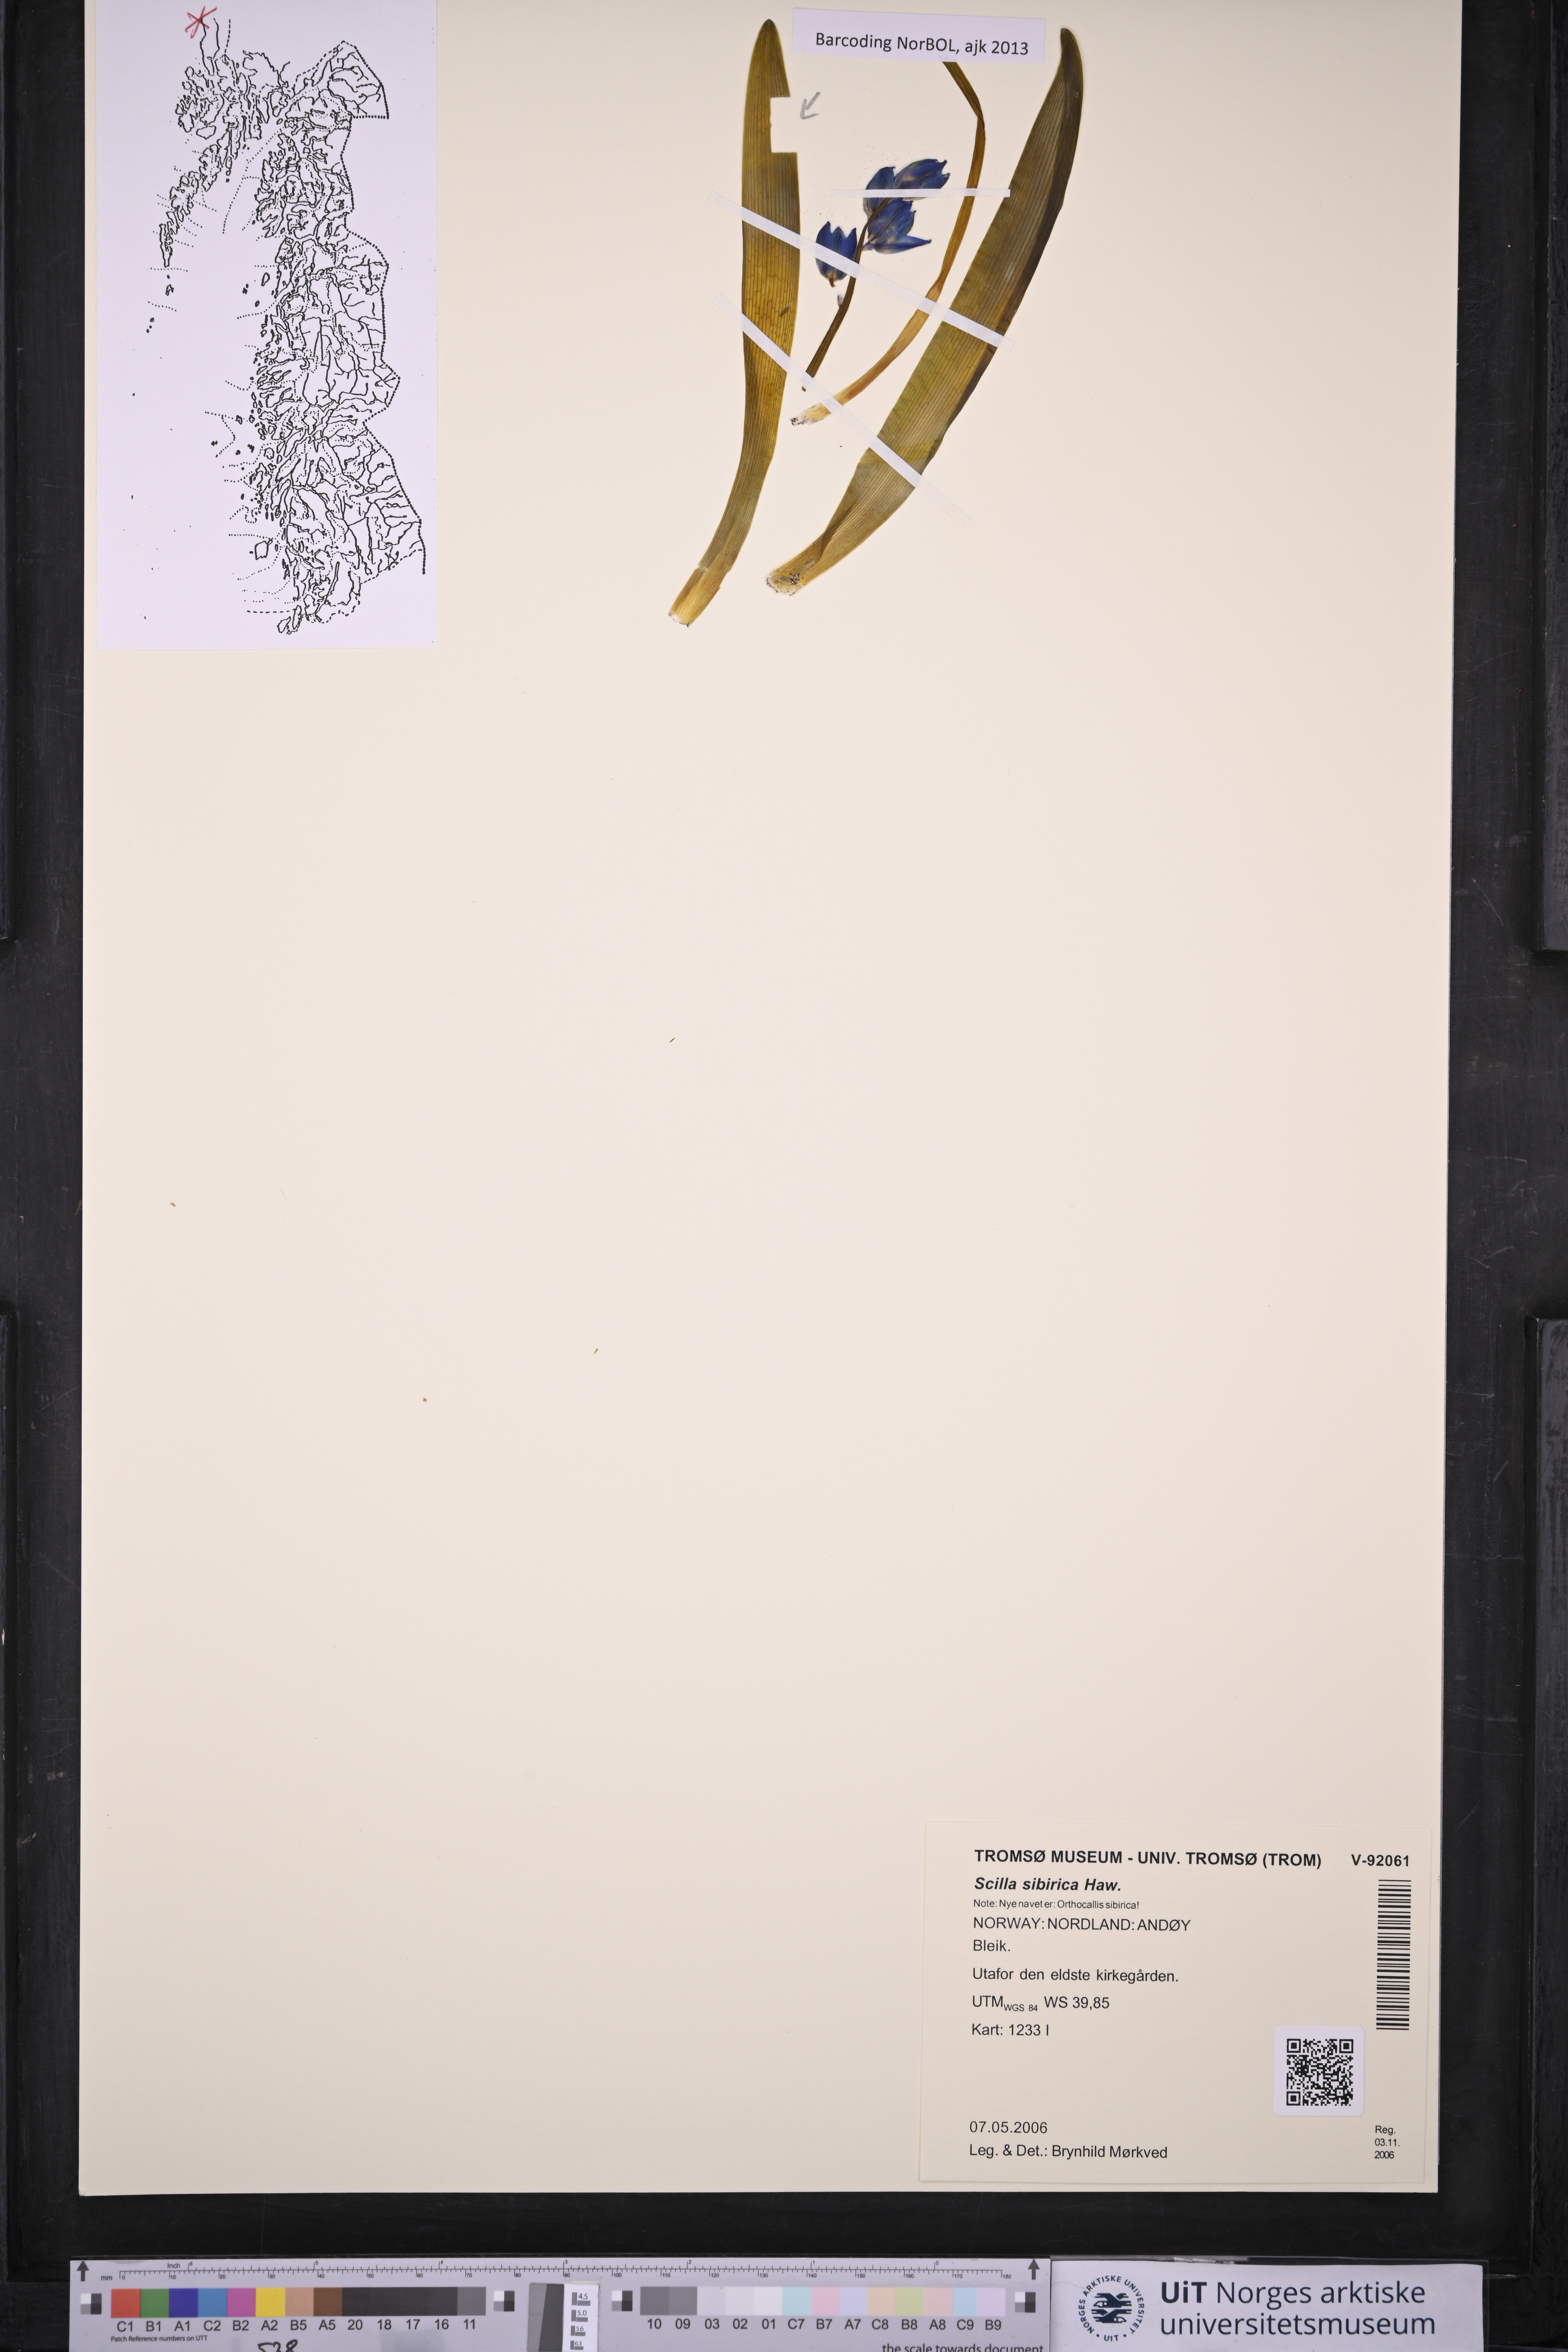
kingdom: Plantae
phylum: Tracheophyta
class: Liliopsida
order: Asparagales
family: Asparagaceae
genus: Scilla
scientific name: Scilla siberica
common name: Siberian squill
